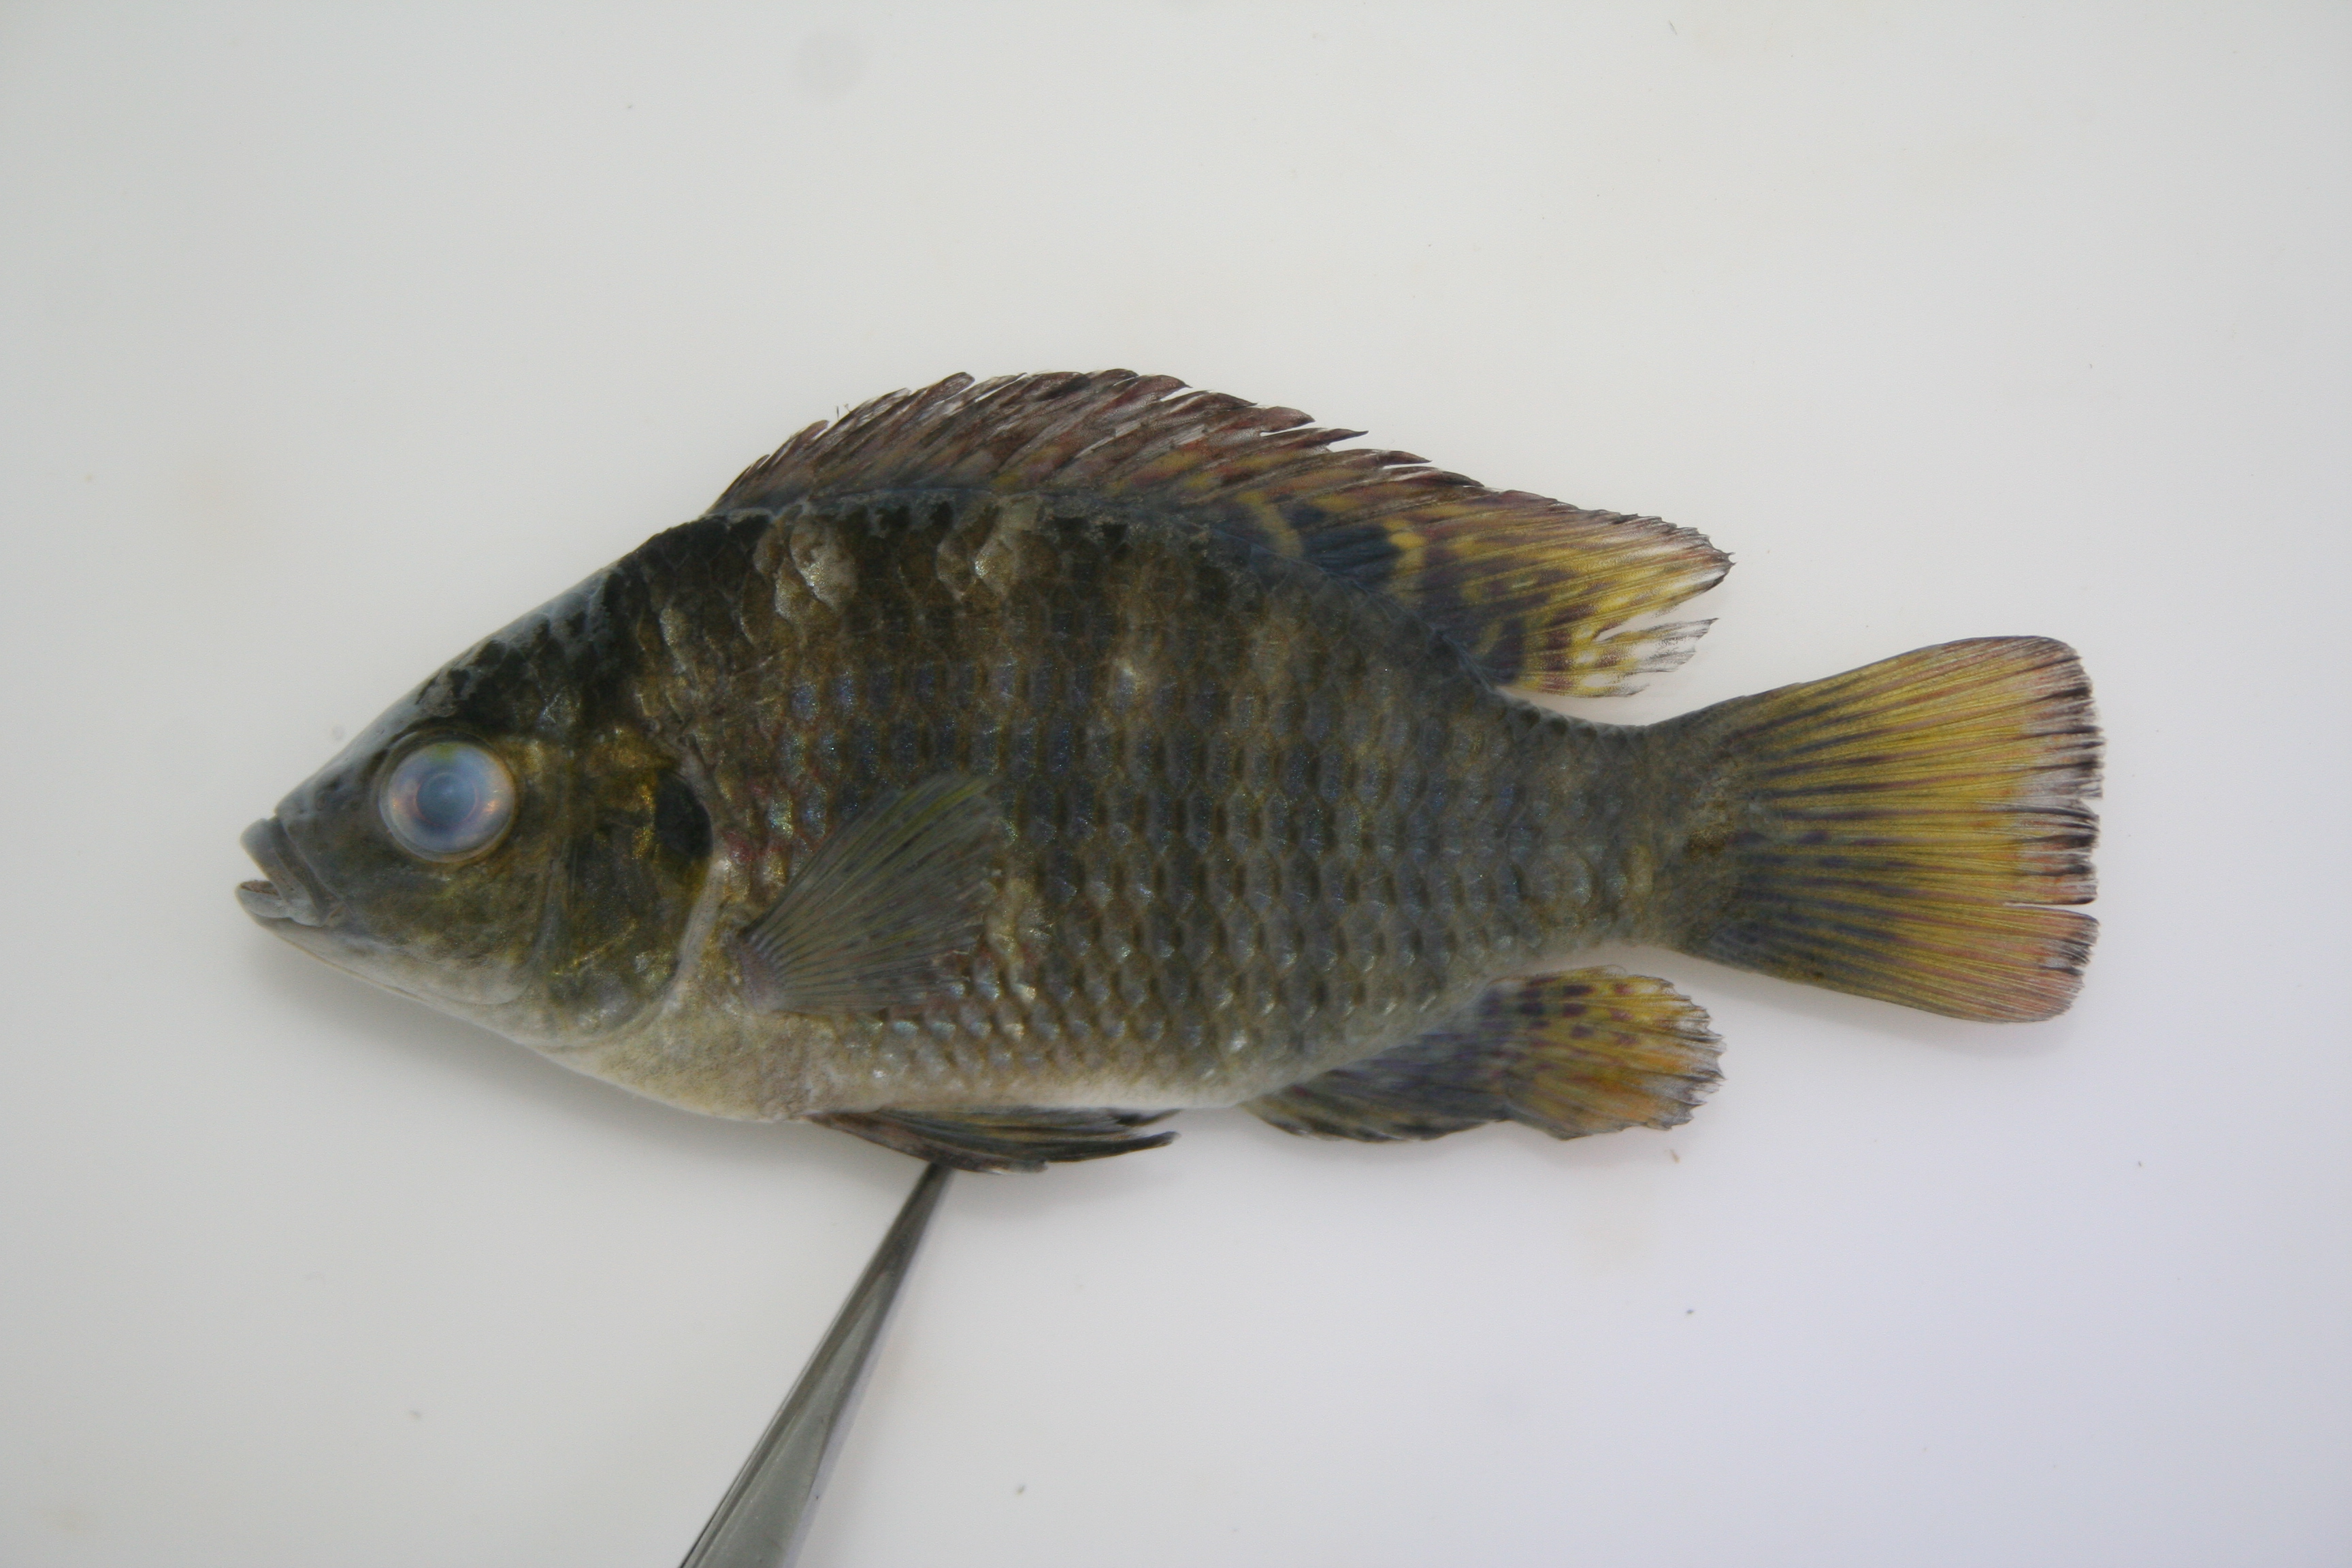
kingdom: Animalia
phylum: Chordata
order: Perciformes
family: Cichlidae
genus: Coptodon
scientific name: Coptodon rendalli
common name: Redbreast tilapia
